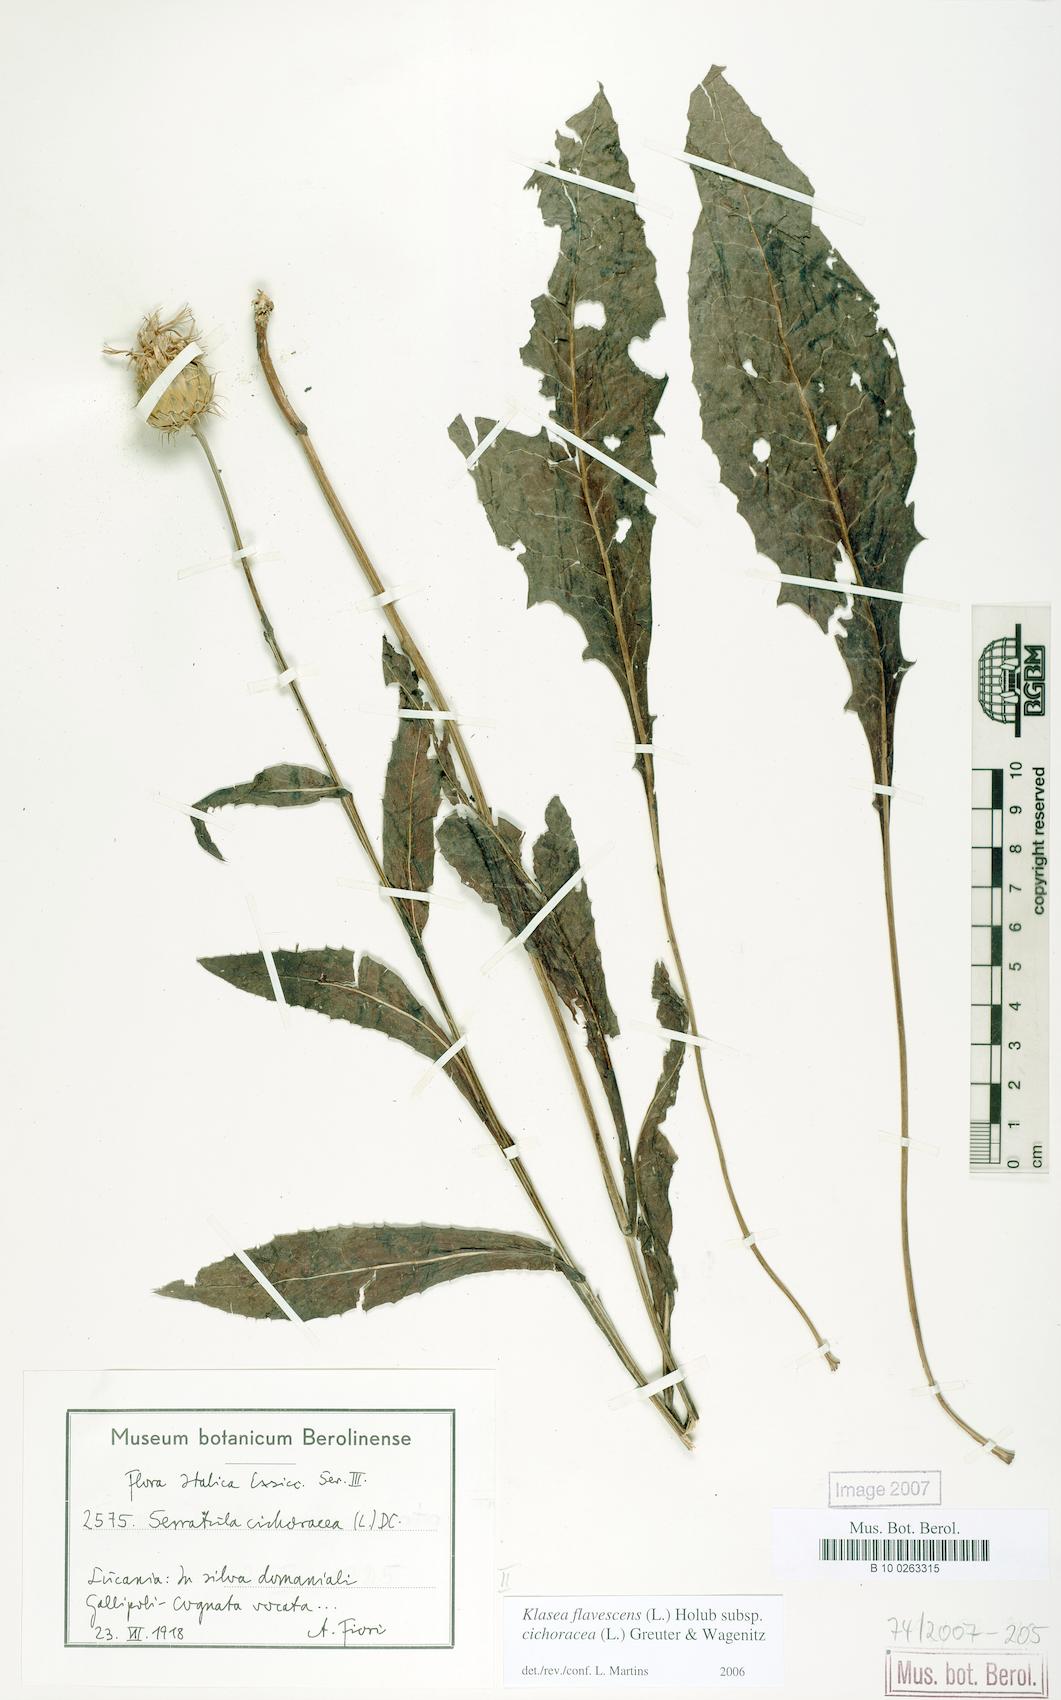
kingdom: Plantae
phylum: Tracheophyta
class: Magnoliopsida
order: Asterales
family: Asteraceae
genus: Klasea
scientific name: Klasea flavescens
